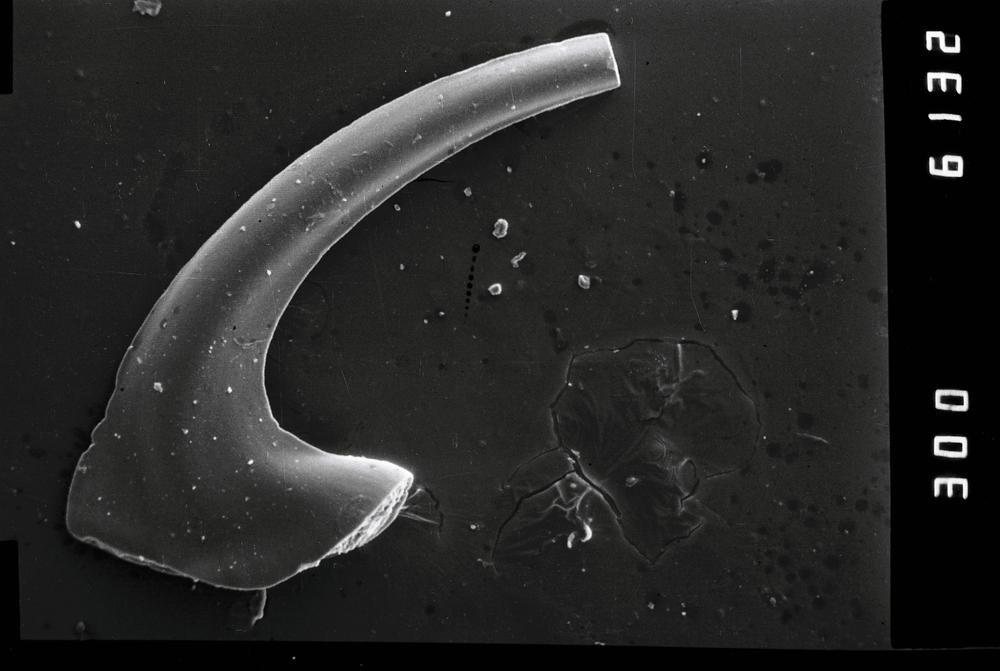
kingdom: Animalia
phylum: Chordata
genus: Paroistodus
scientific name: Paroistodus
